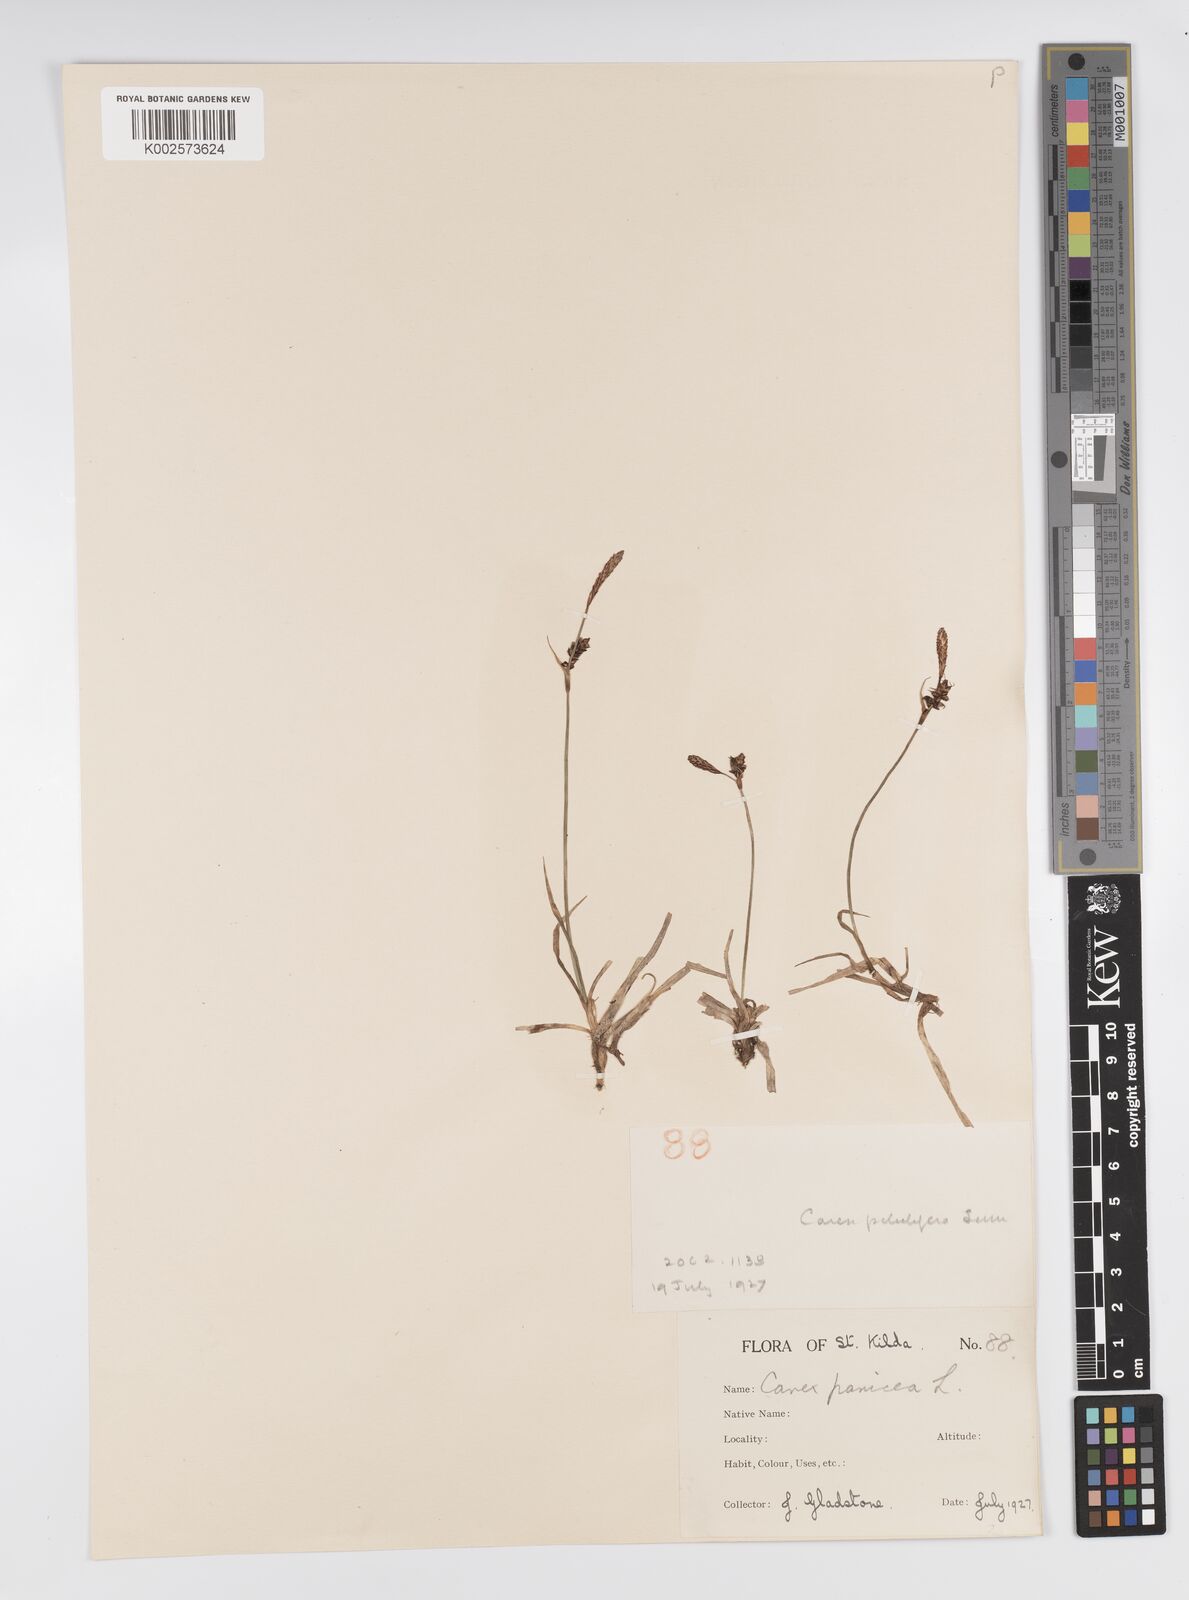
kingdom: Plantae
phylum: Tracheophyta
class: Liliopsida
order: Poales
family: Cyperaceae
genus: Carex
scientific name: Carex panicea
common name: Carnation sedge
